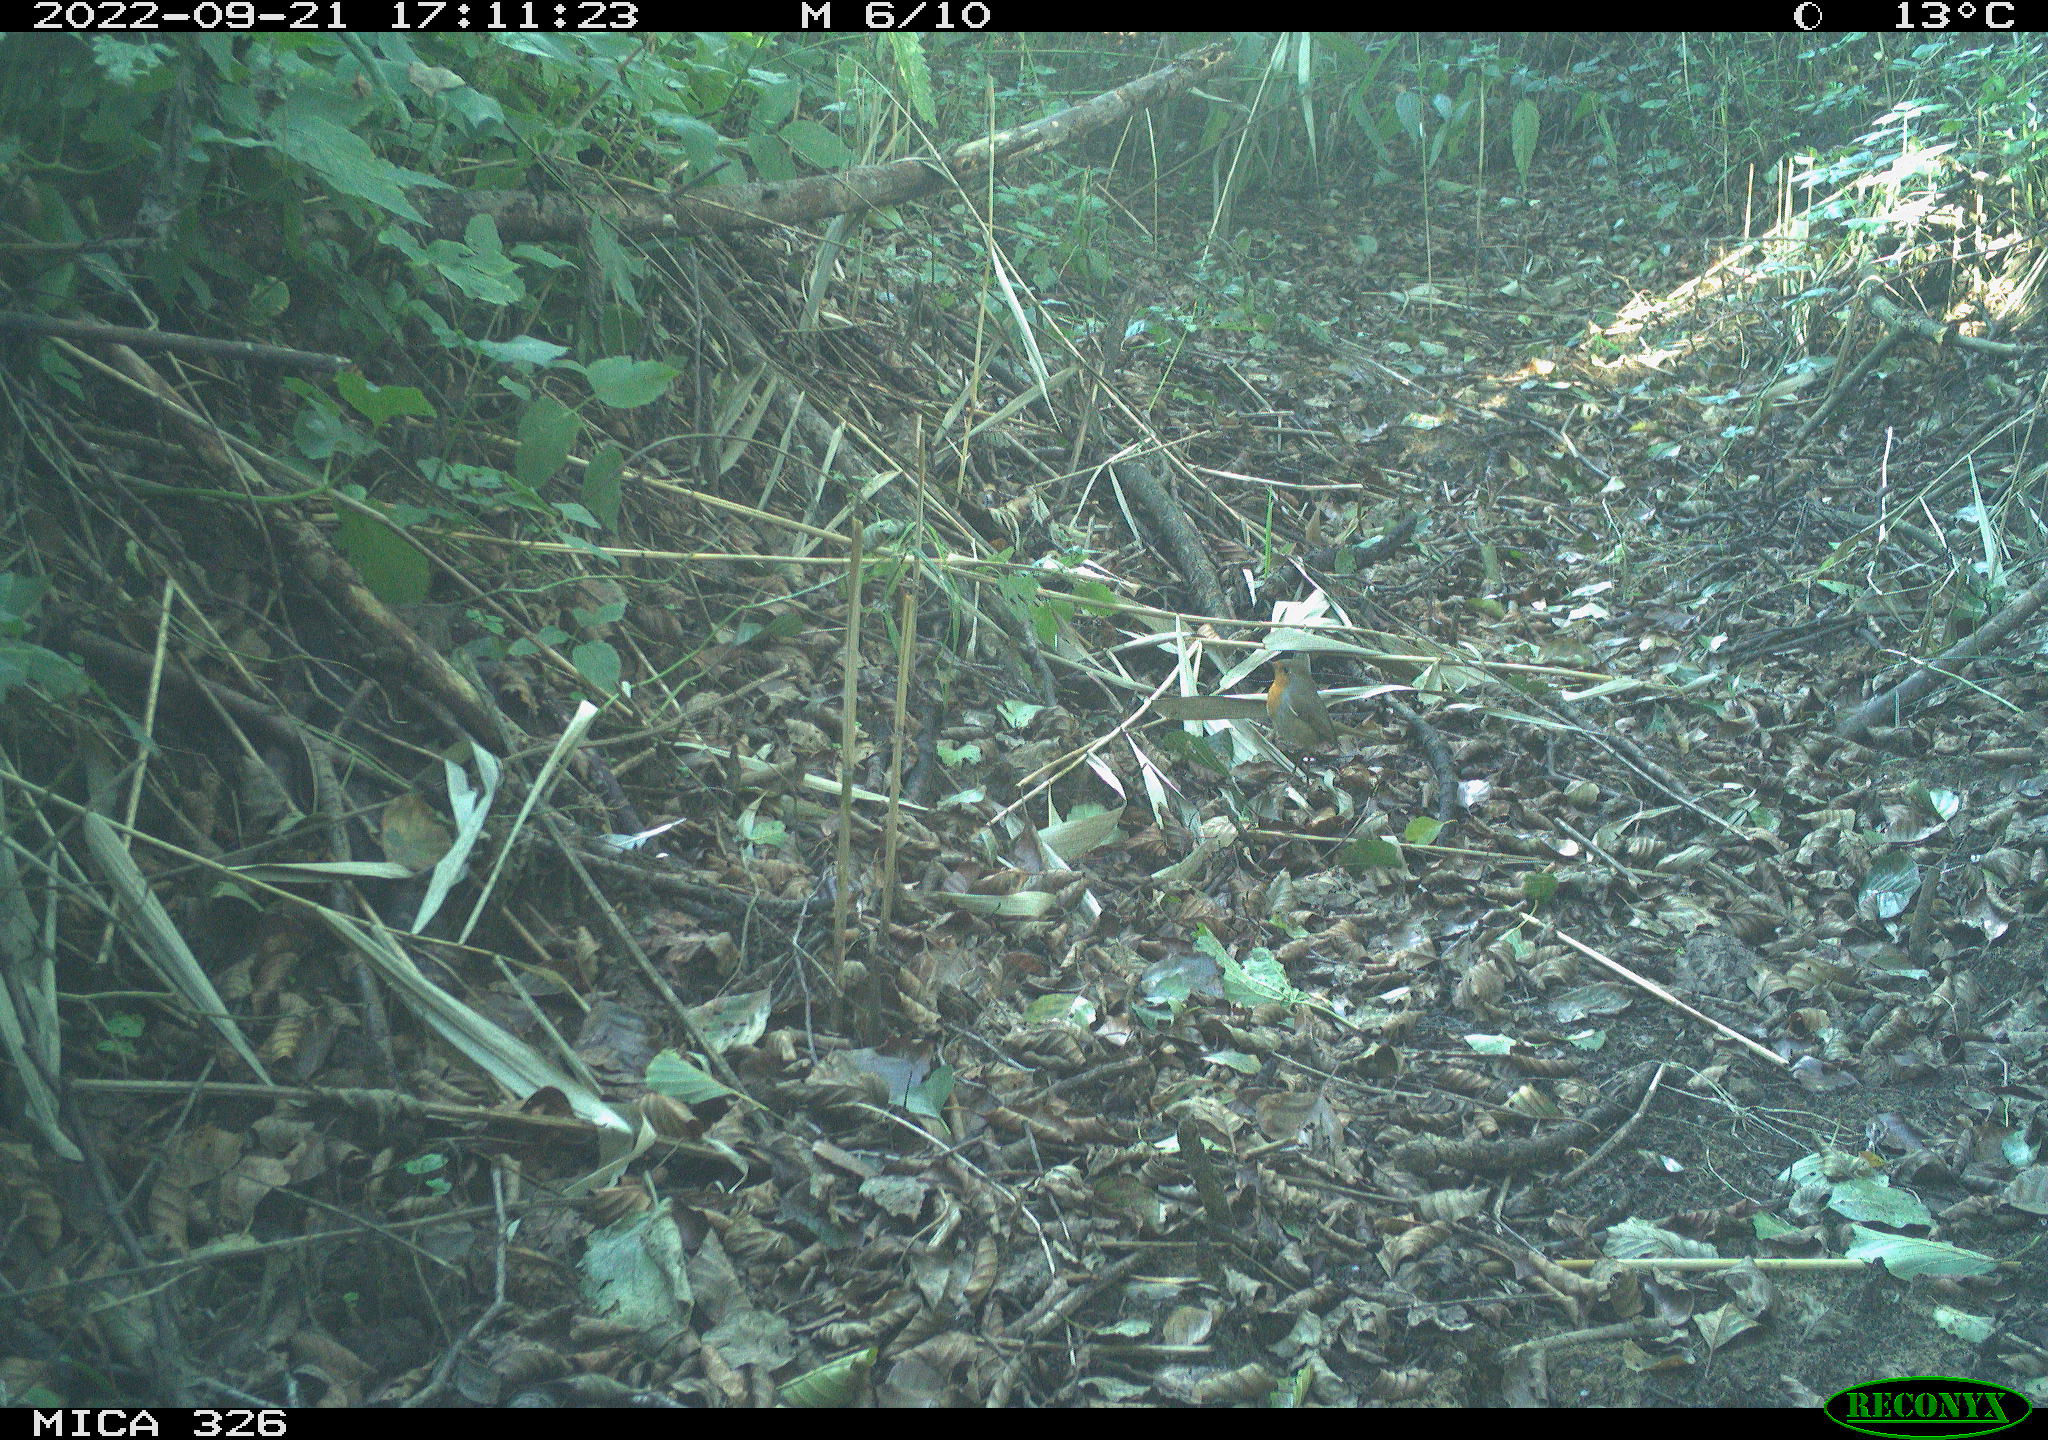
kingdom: Animalia
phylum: Chordata
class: Aves
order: Passeriformes
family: Muscicapidae
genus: Erithacus
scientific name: Erithacus rubecula
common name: European robin
